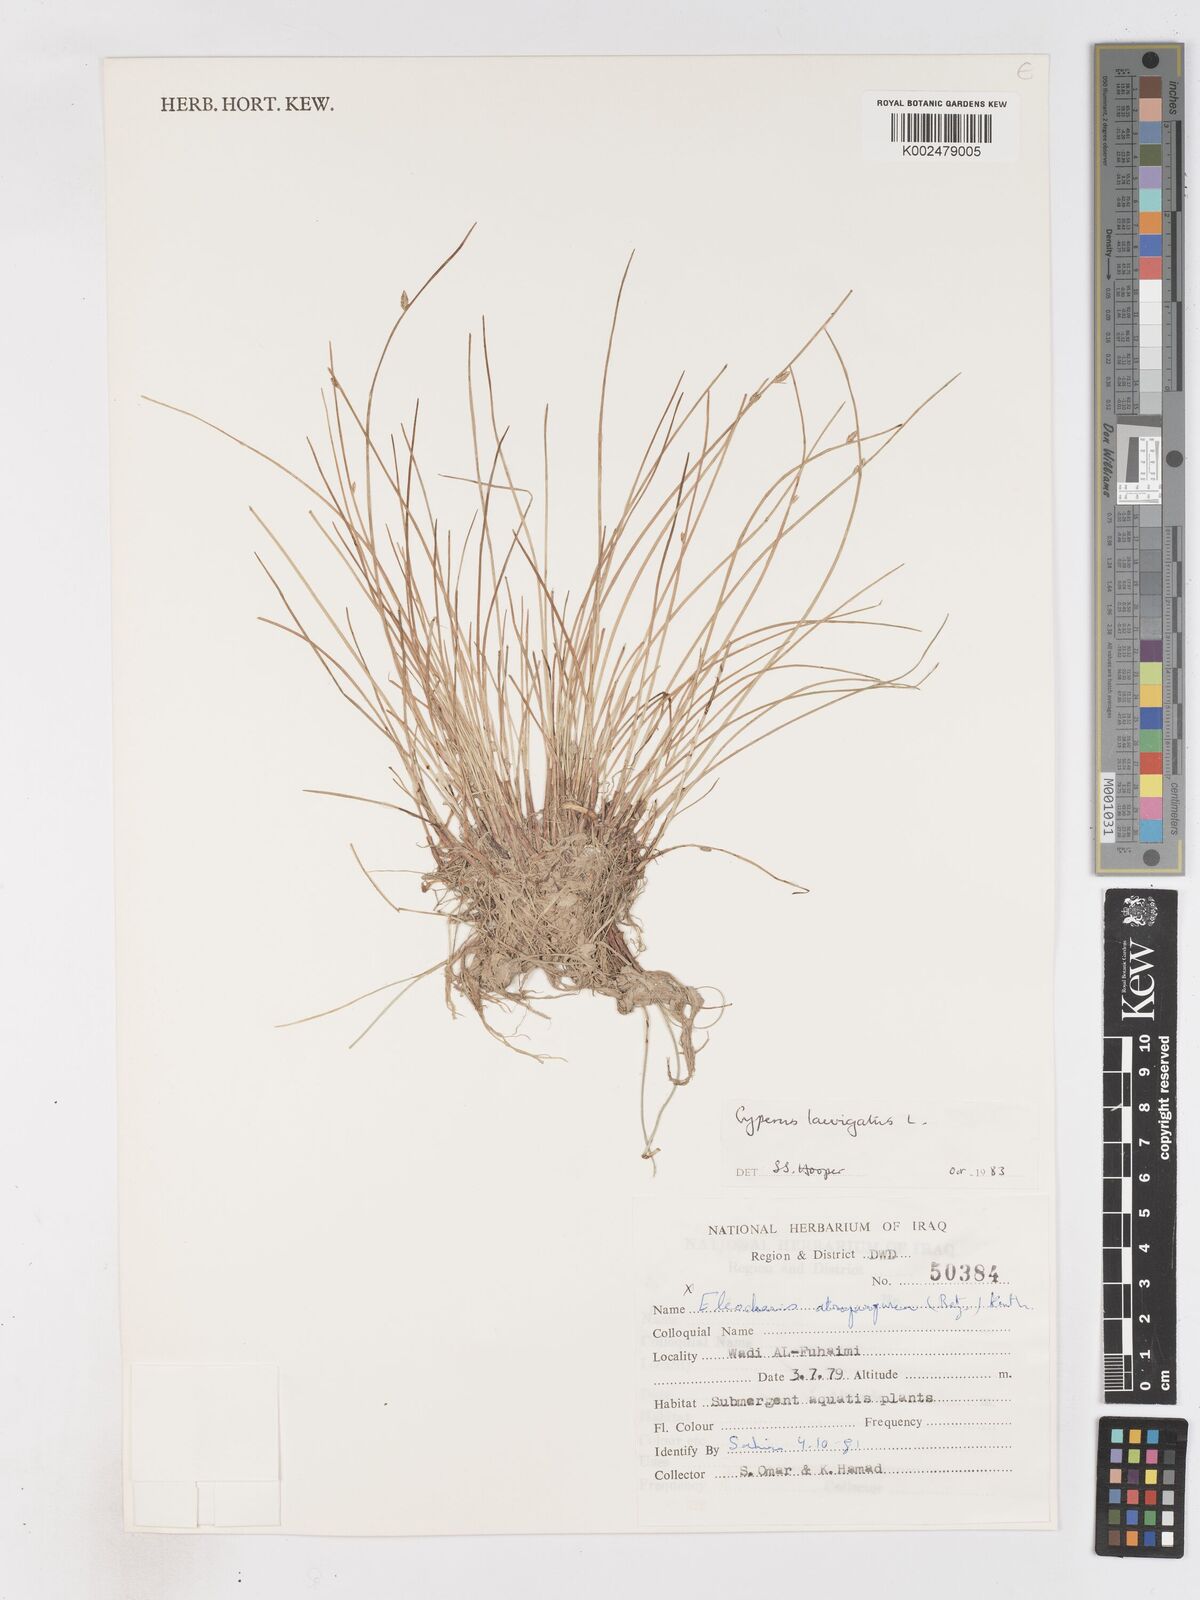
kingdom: Plantae
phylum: Tracheophyta
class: Liliopsida
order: Poales
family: Cyperaceae
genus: Cyperus
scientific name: Cyperus laevigatus
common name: Smooth flat sedge
